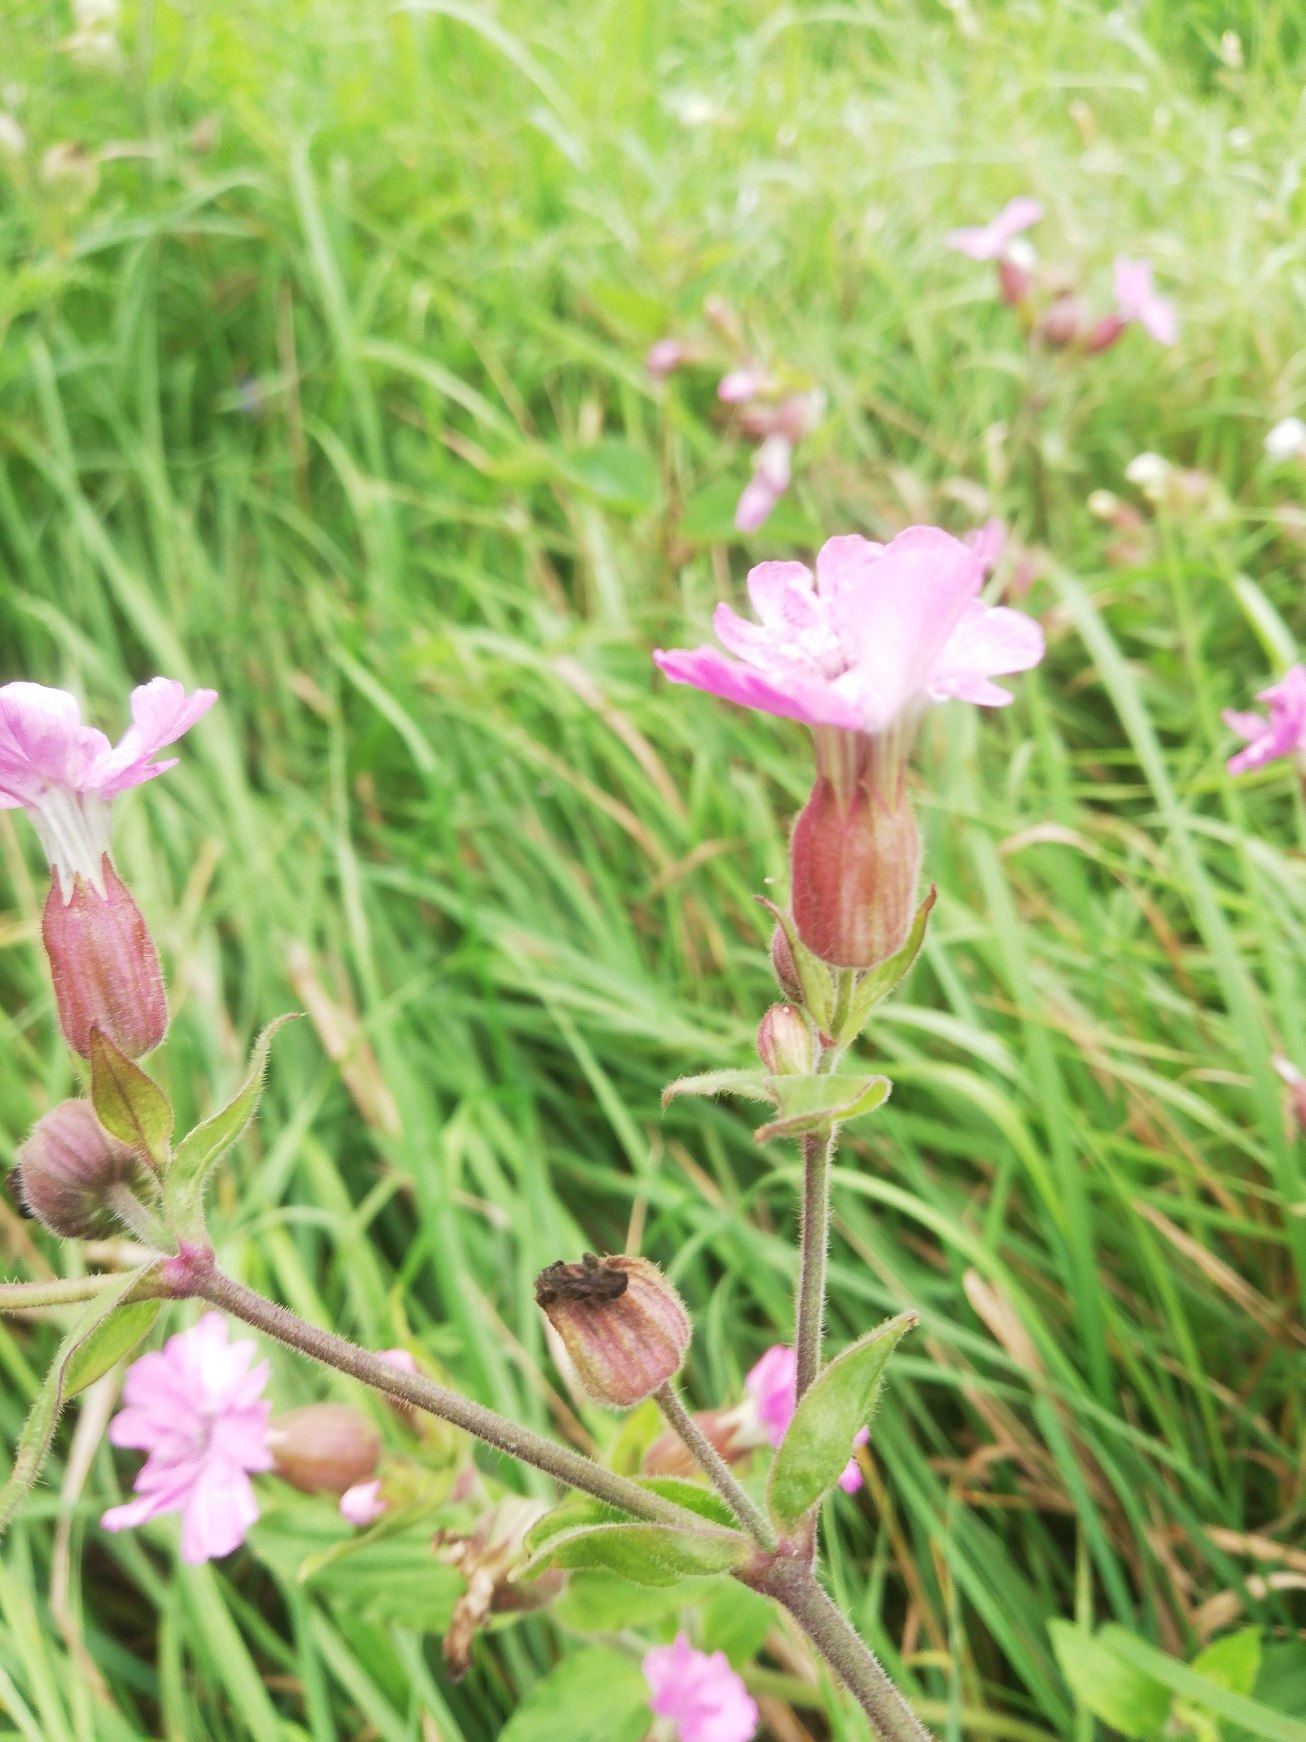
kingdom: Plantae
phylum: Tracheophyta
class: Magnoliopsida
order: Caryophyllales
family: Caryophyllaceae
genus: Silene
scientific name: Silene dioica
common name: Dagpragtstjerne
